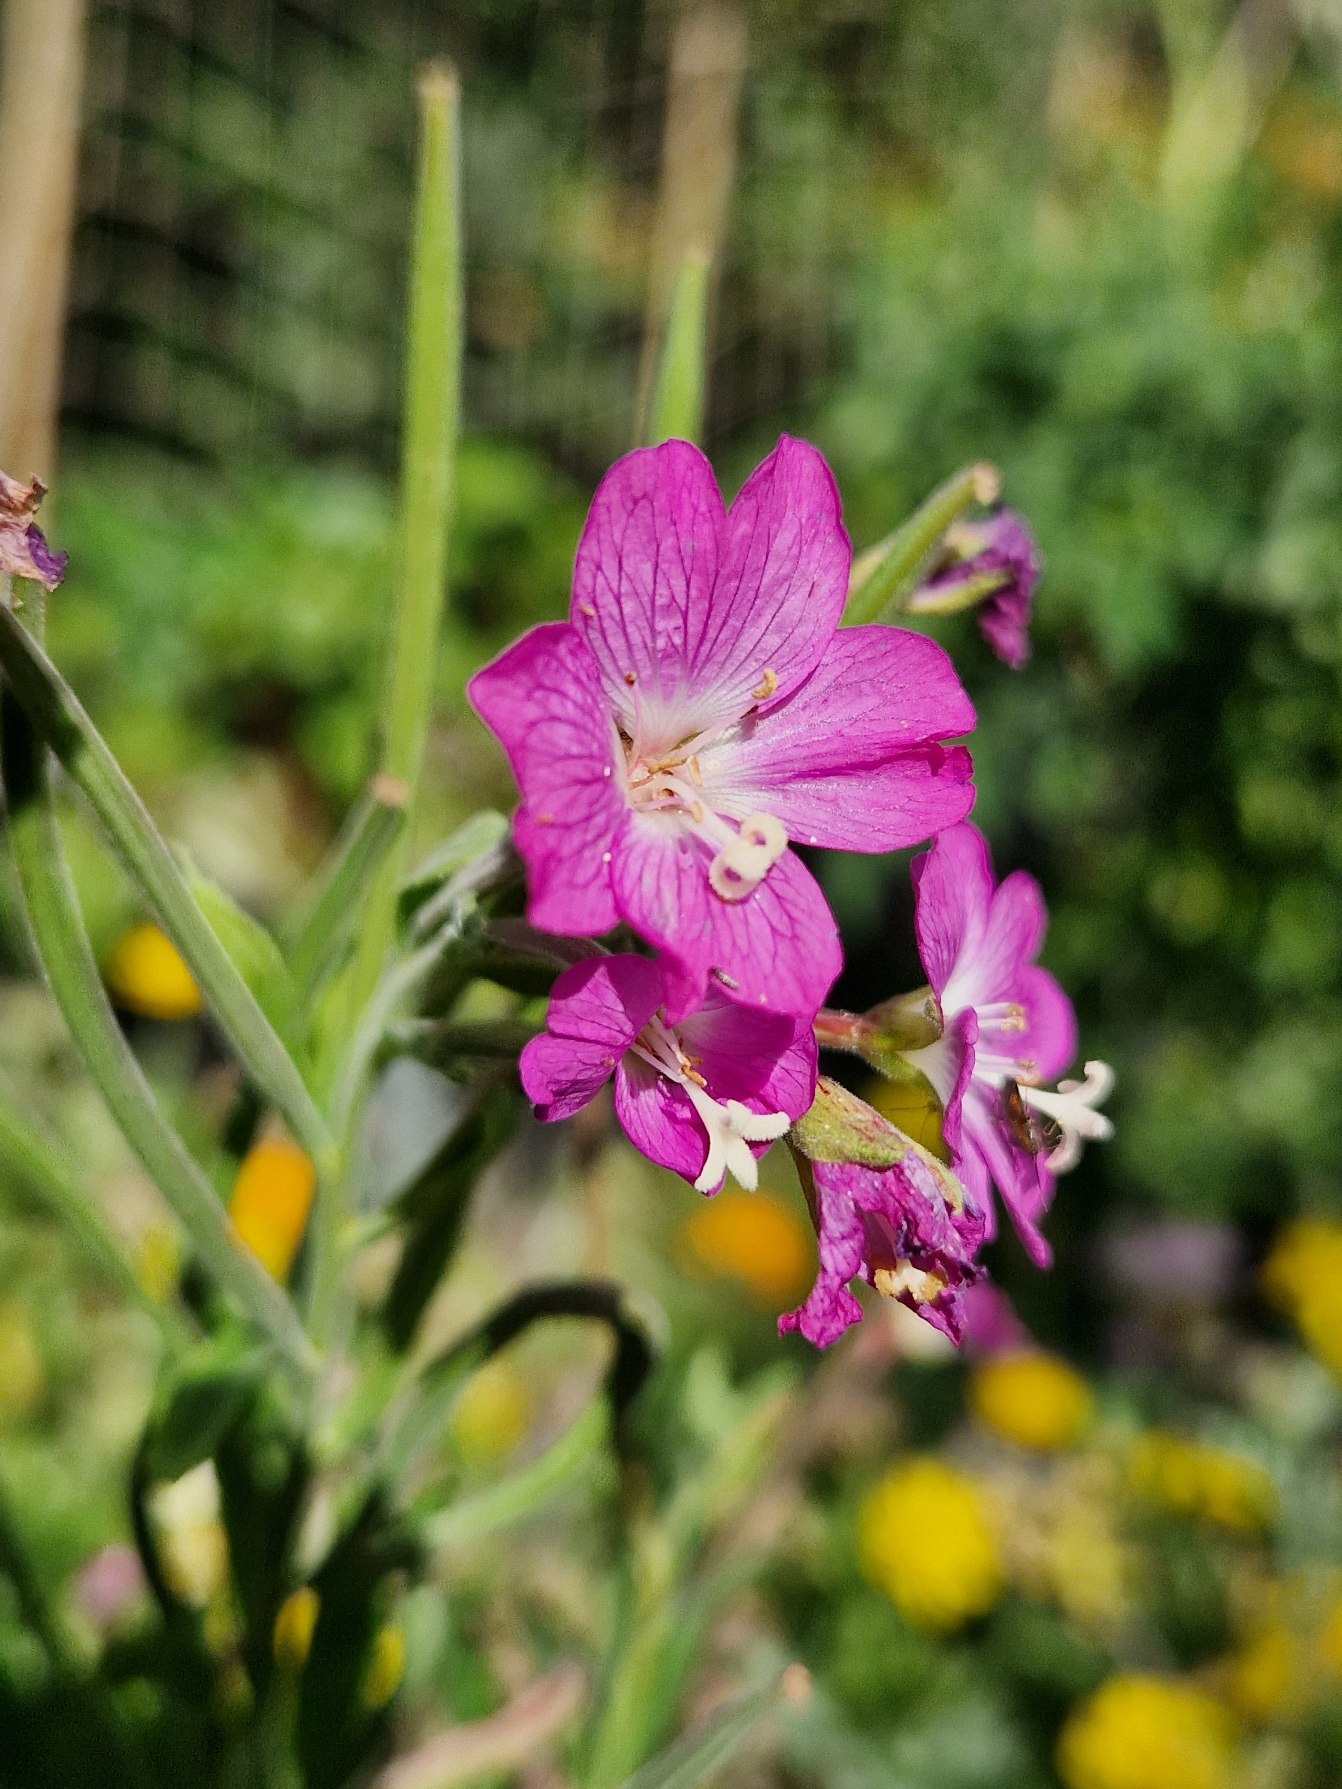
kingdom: Plantae
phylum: Tracheophyta
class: Magnoliopsida
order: Myrtales
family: Onagraceae
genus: Epilobium
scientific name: Epilobium hirsutum
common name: Lådden dueurt
